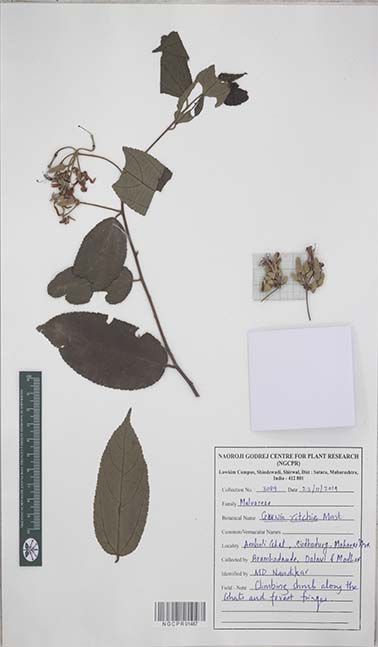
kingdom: Plantae
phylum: Tracheophyta
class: Magnoliopsida
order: Malvales
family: Malvaceae
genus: Grewia
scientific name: Grewia ritchiei
